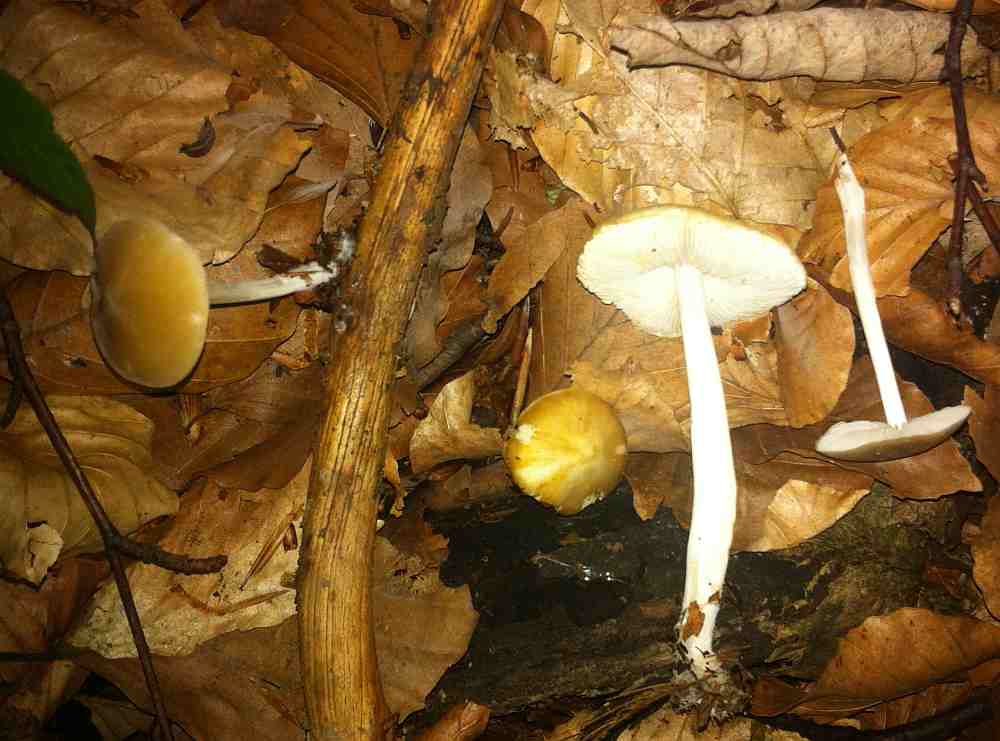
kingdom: Fungi
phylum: Basidiomycota
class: Agaricomycetes
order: Agaricales
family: Porotheleaceae
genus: Hydropodia
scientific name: Hydropodia subalpina
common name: vår-fnugfod
